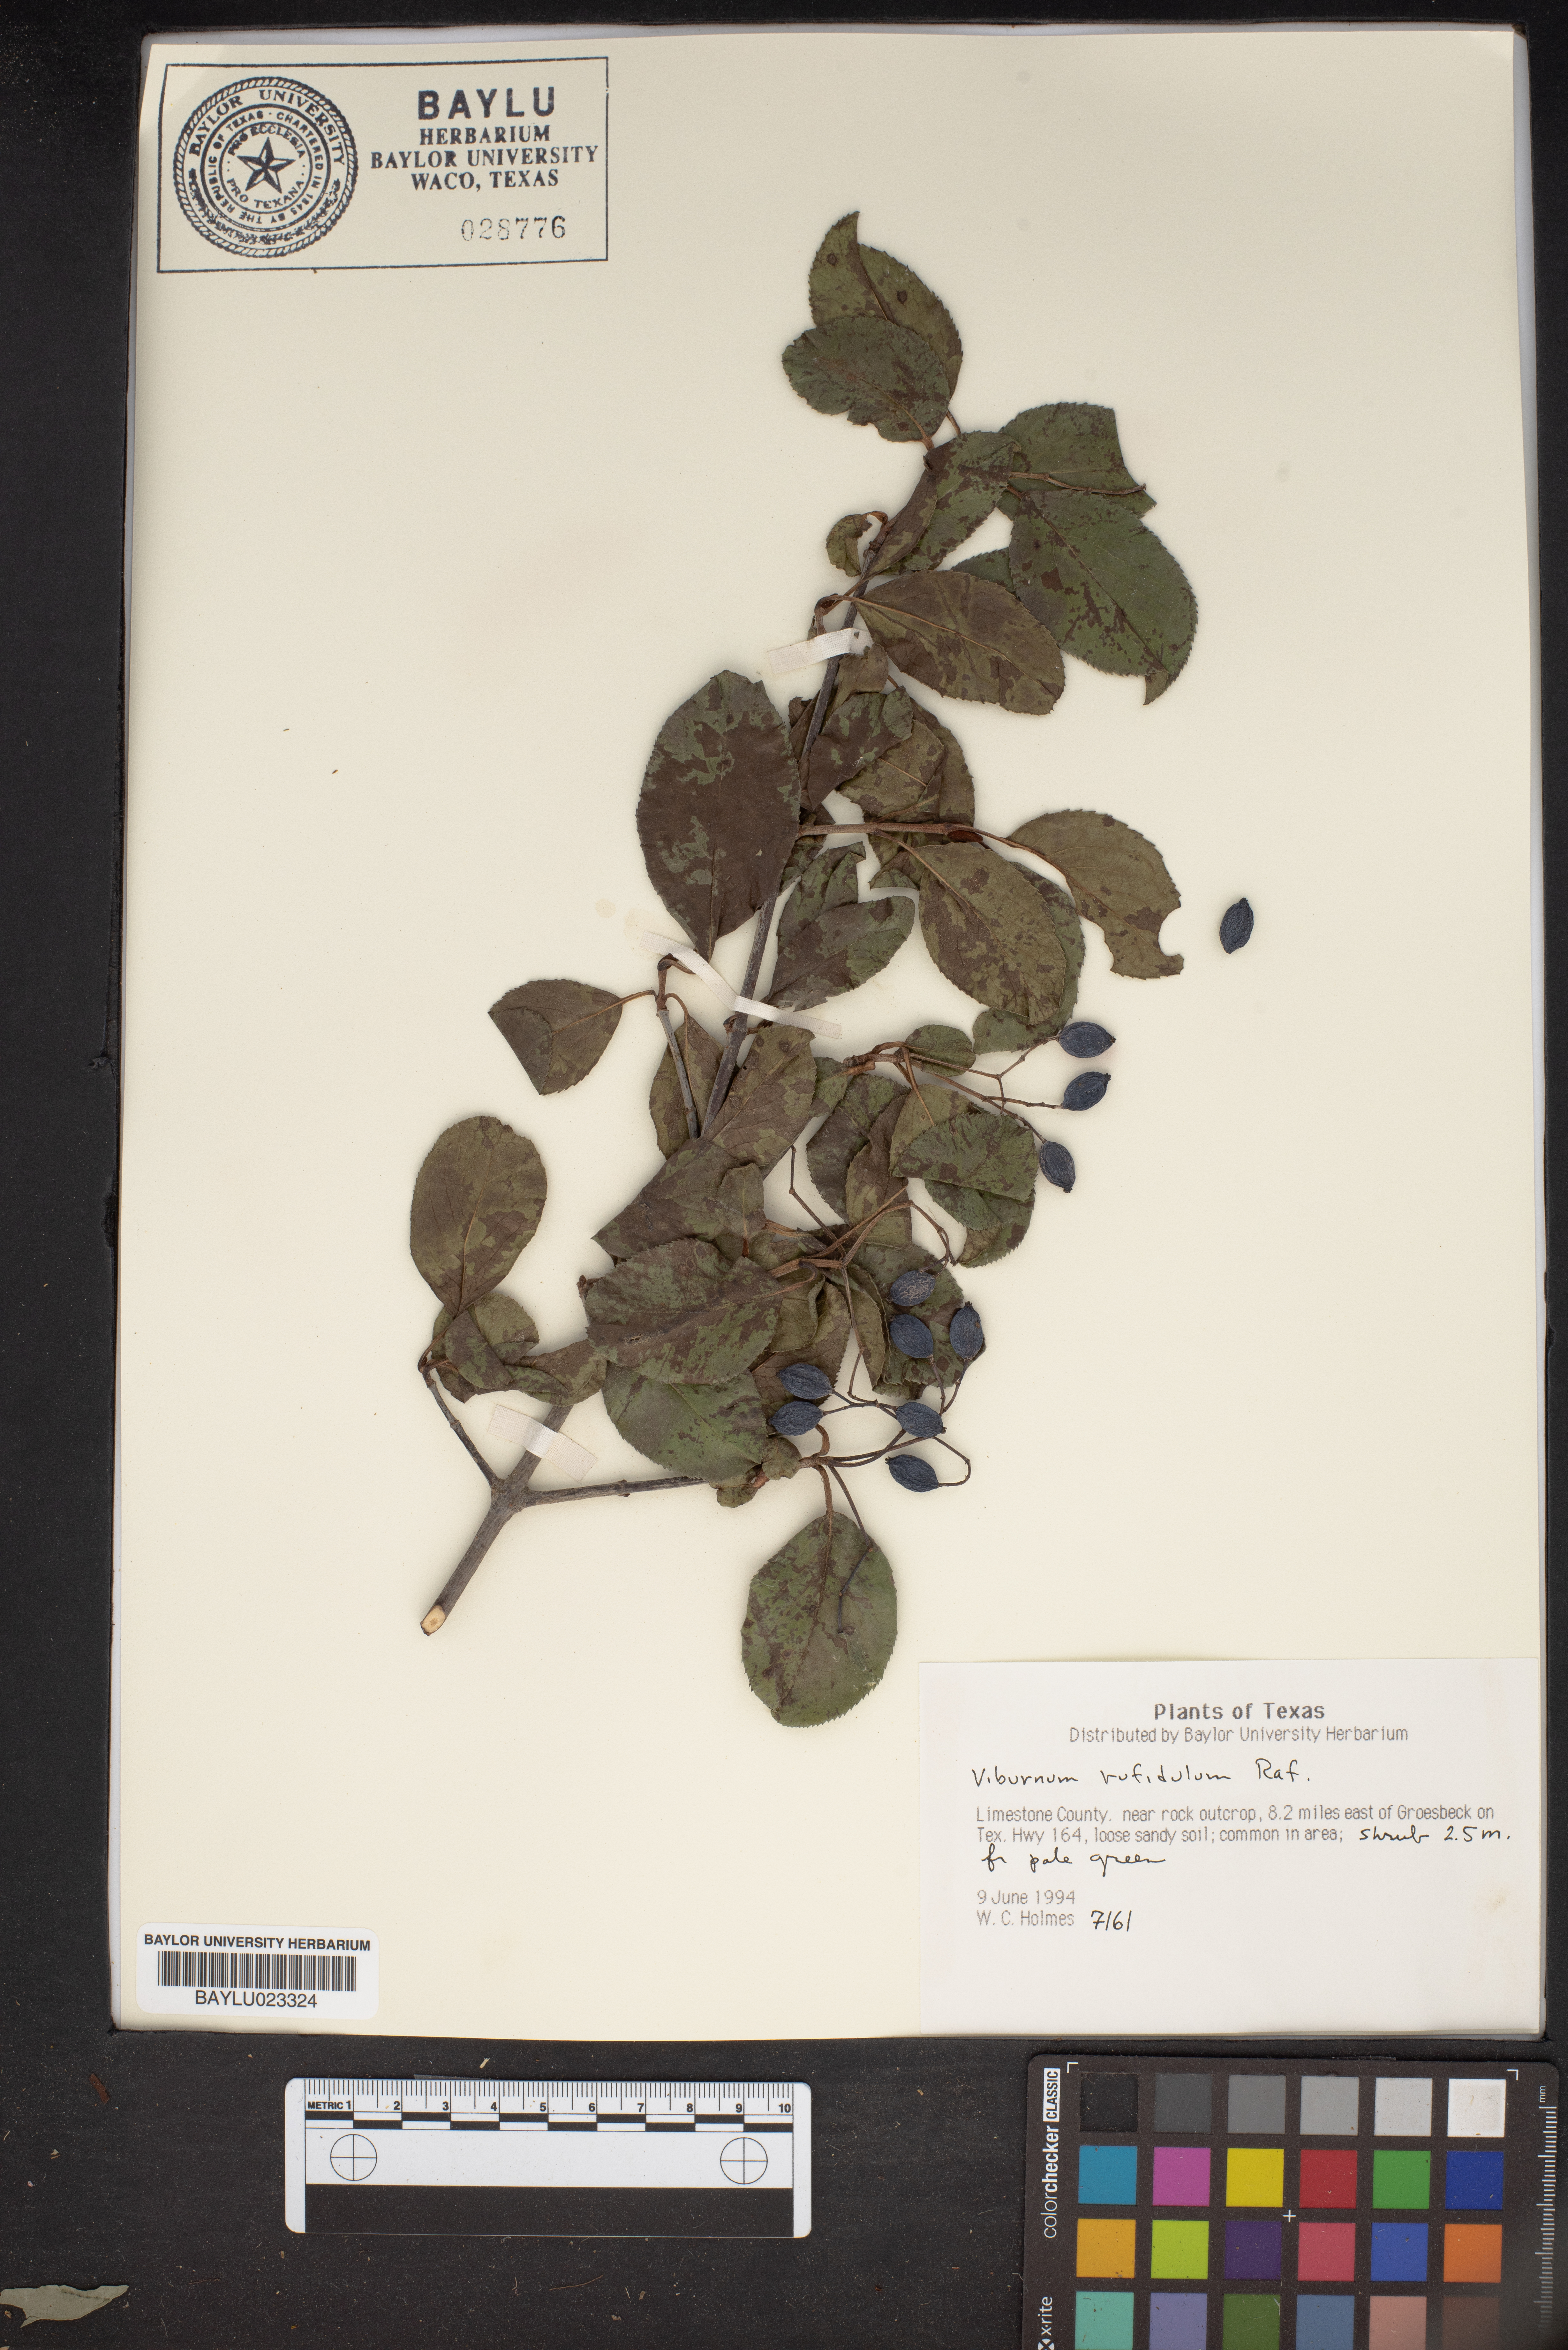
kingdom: Plantae
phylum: Tracheophyta
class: Magnoliopsida
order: Dipsacales
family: Viburnaceae
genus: Viburnum
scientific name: Viburnum rufidulum
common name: Blue haw
